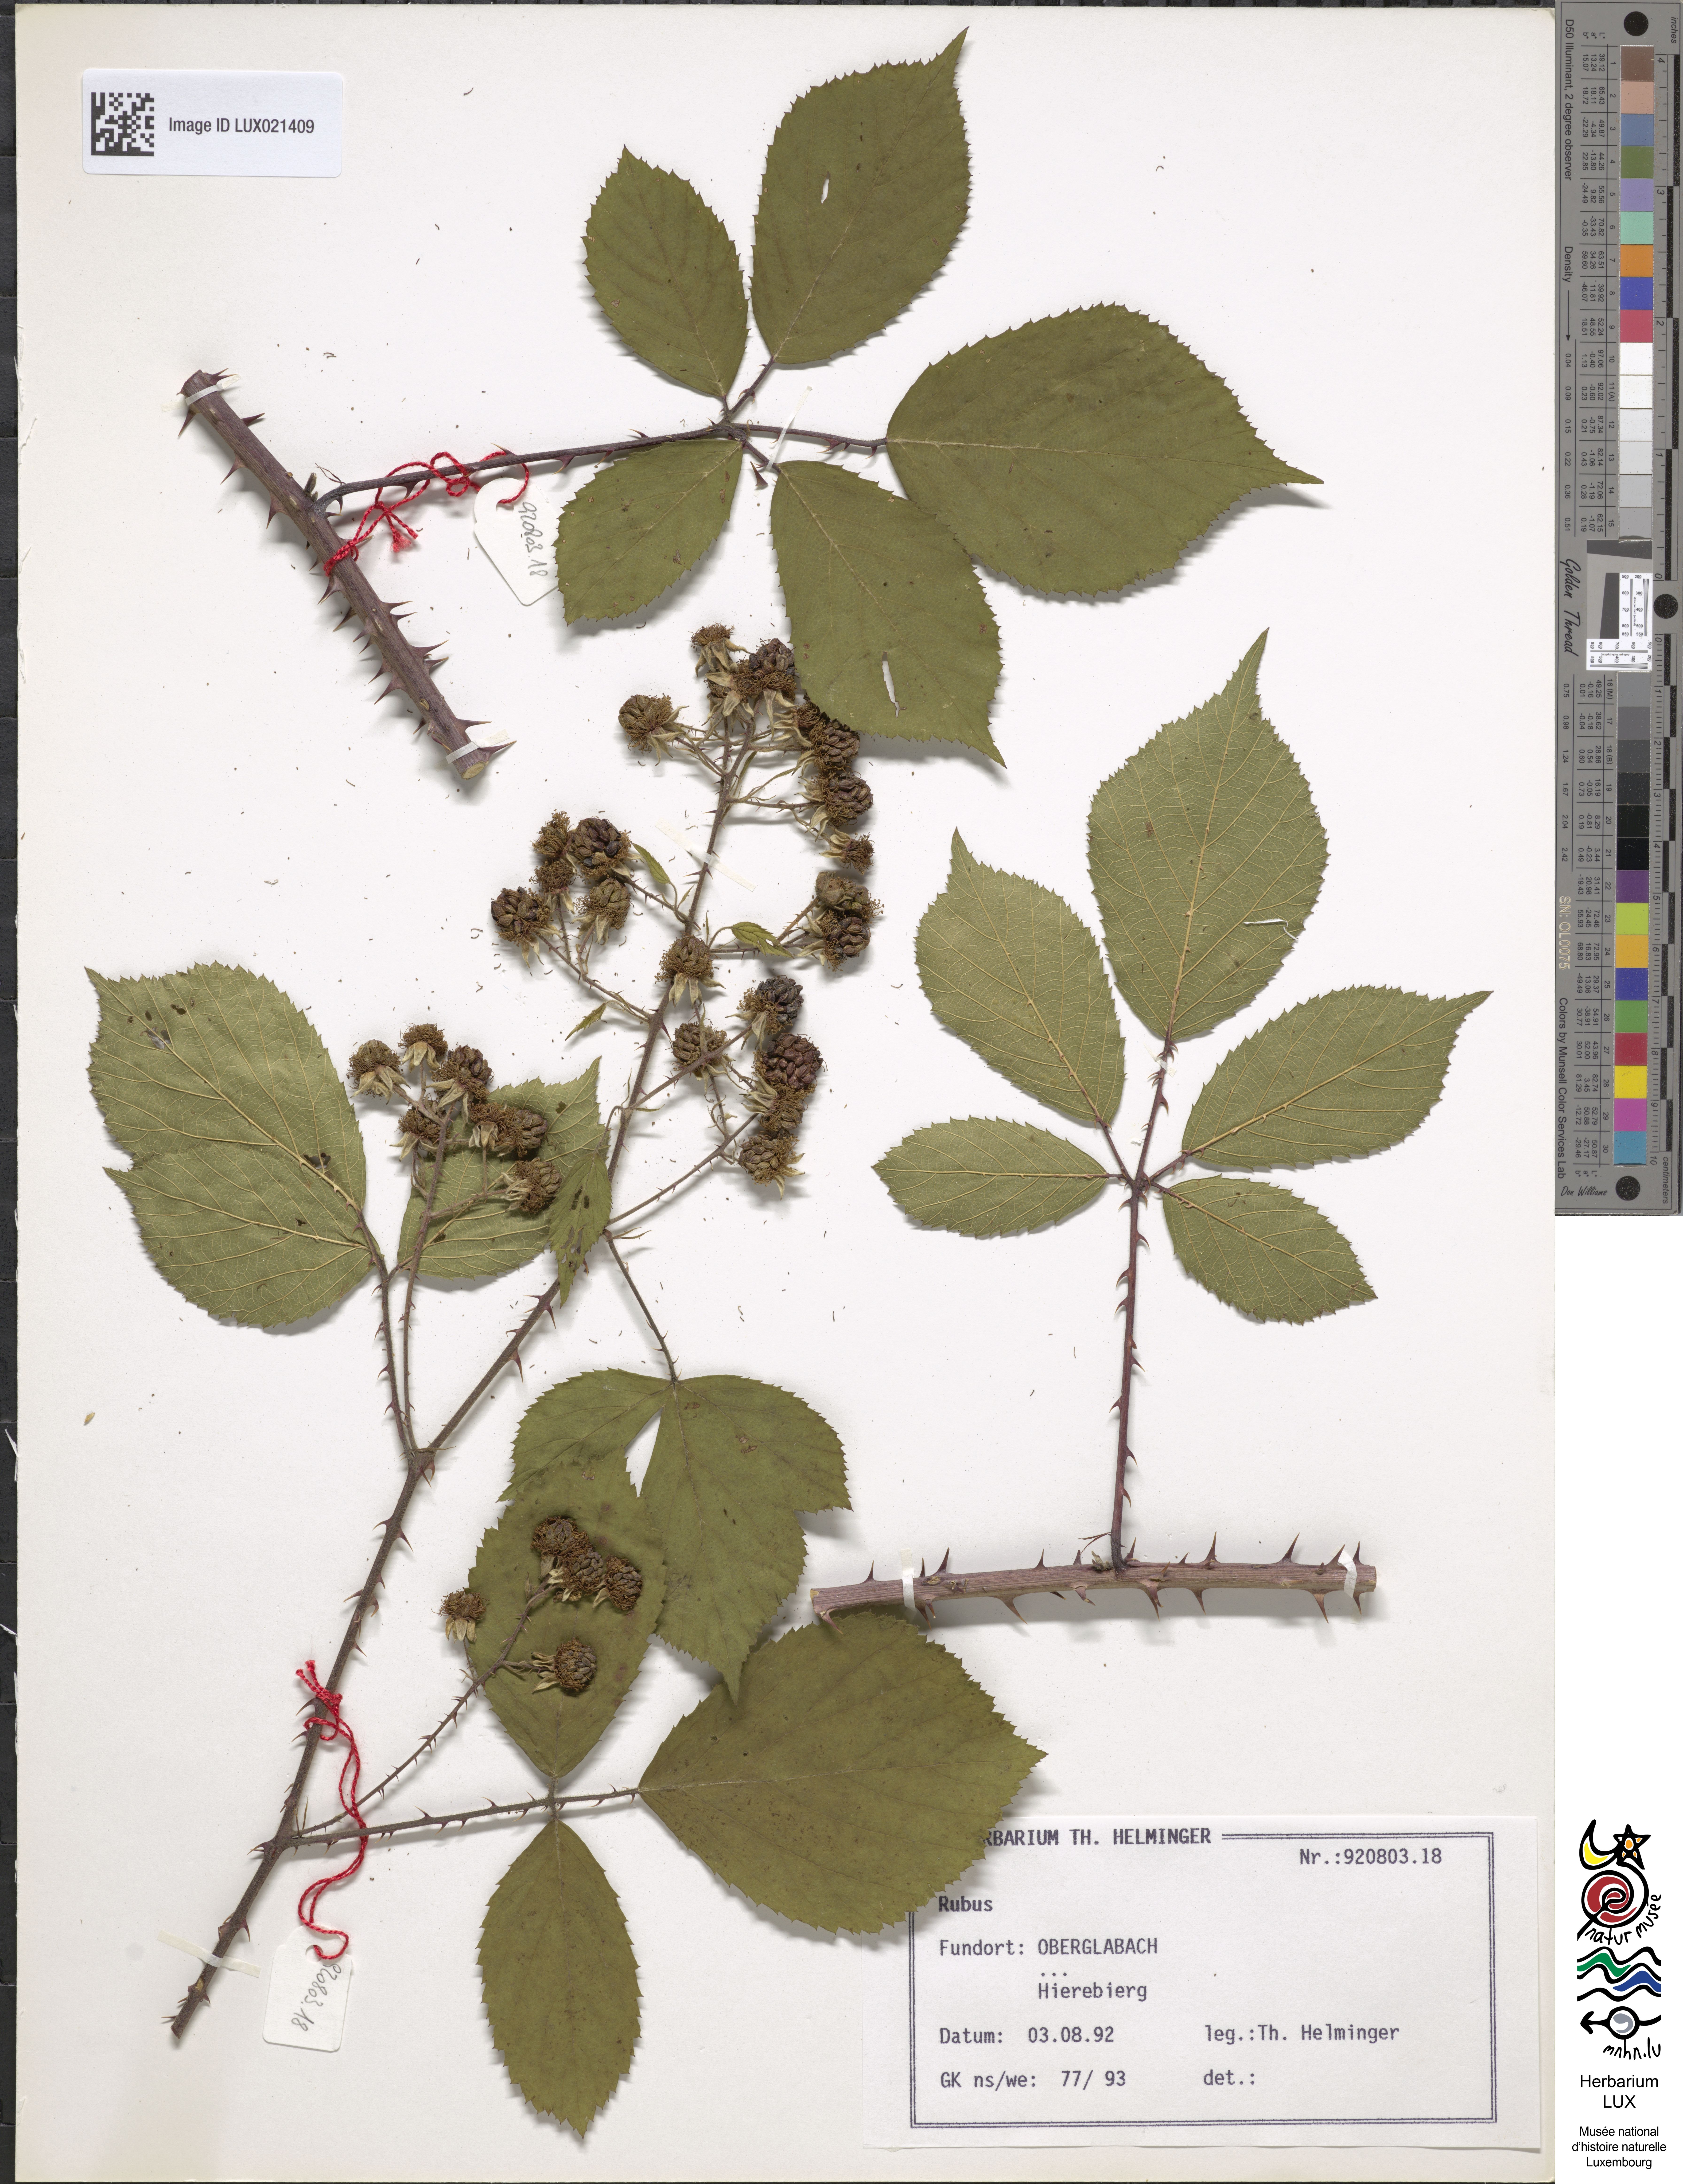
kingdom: Plantae
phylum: Tracheophyta
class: Magnoliopsida
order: Rosales
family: Rosaceae
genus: Rubus
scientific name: Rubus
